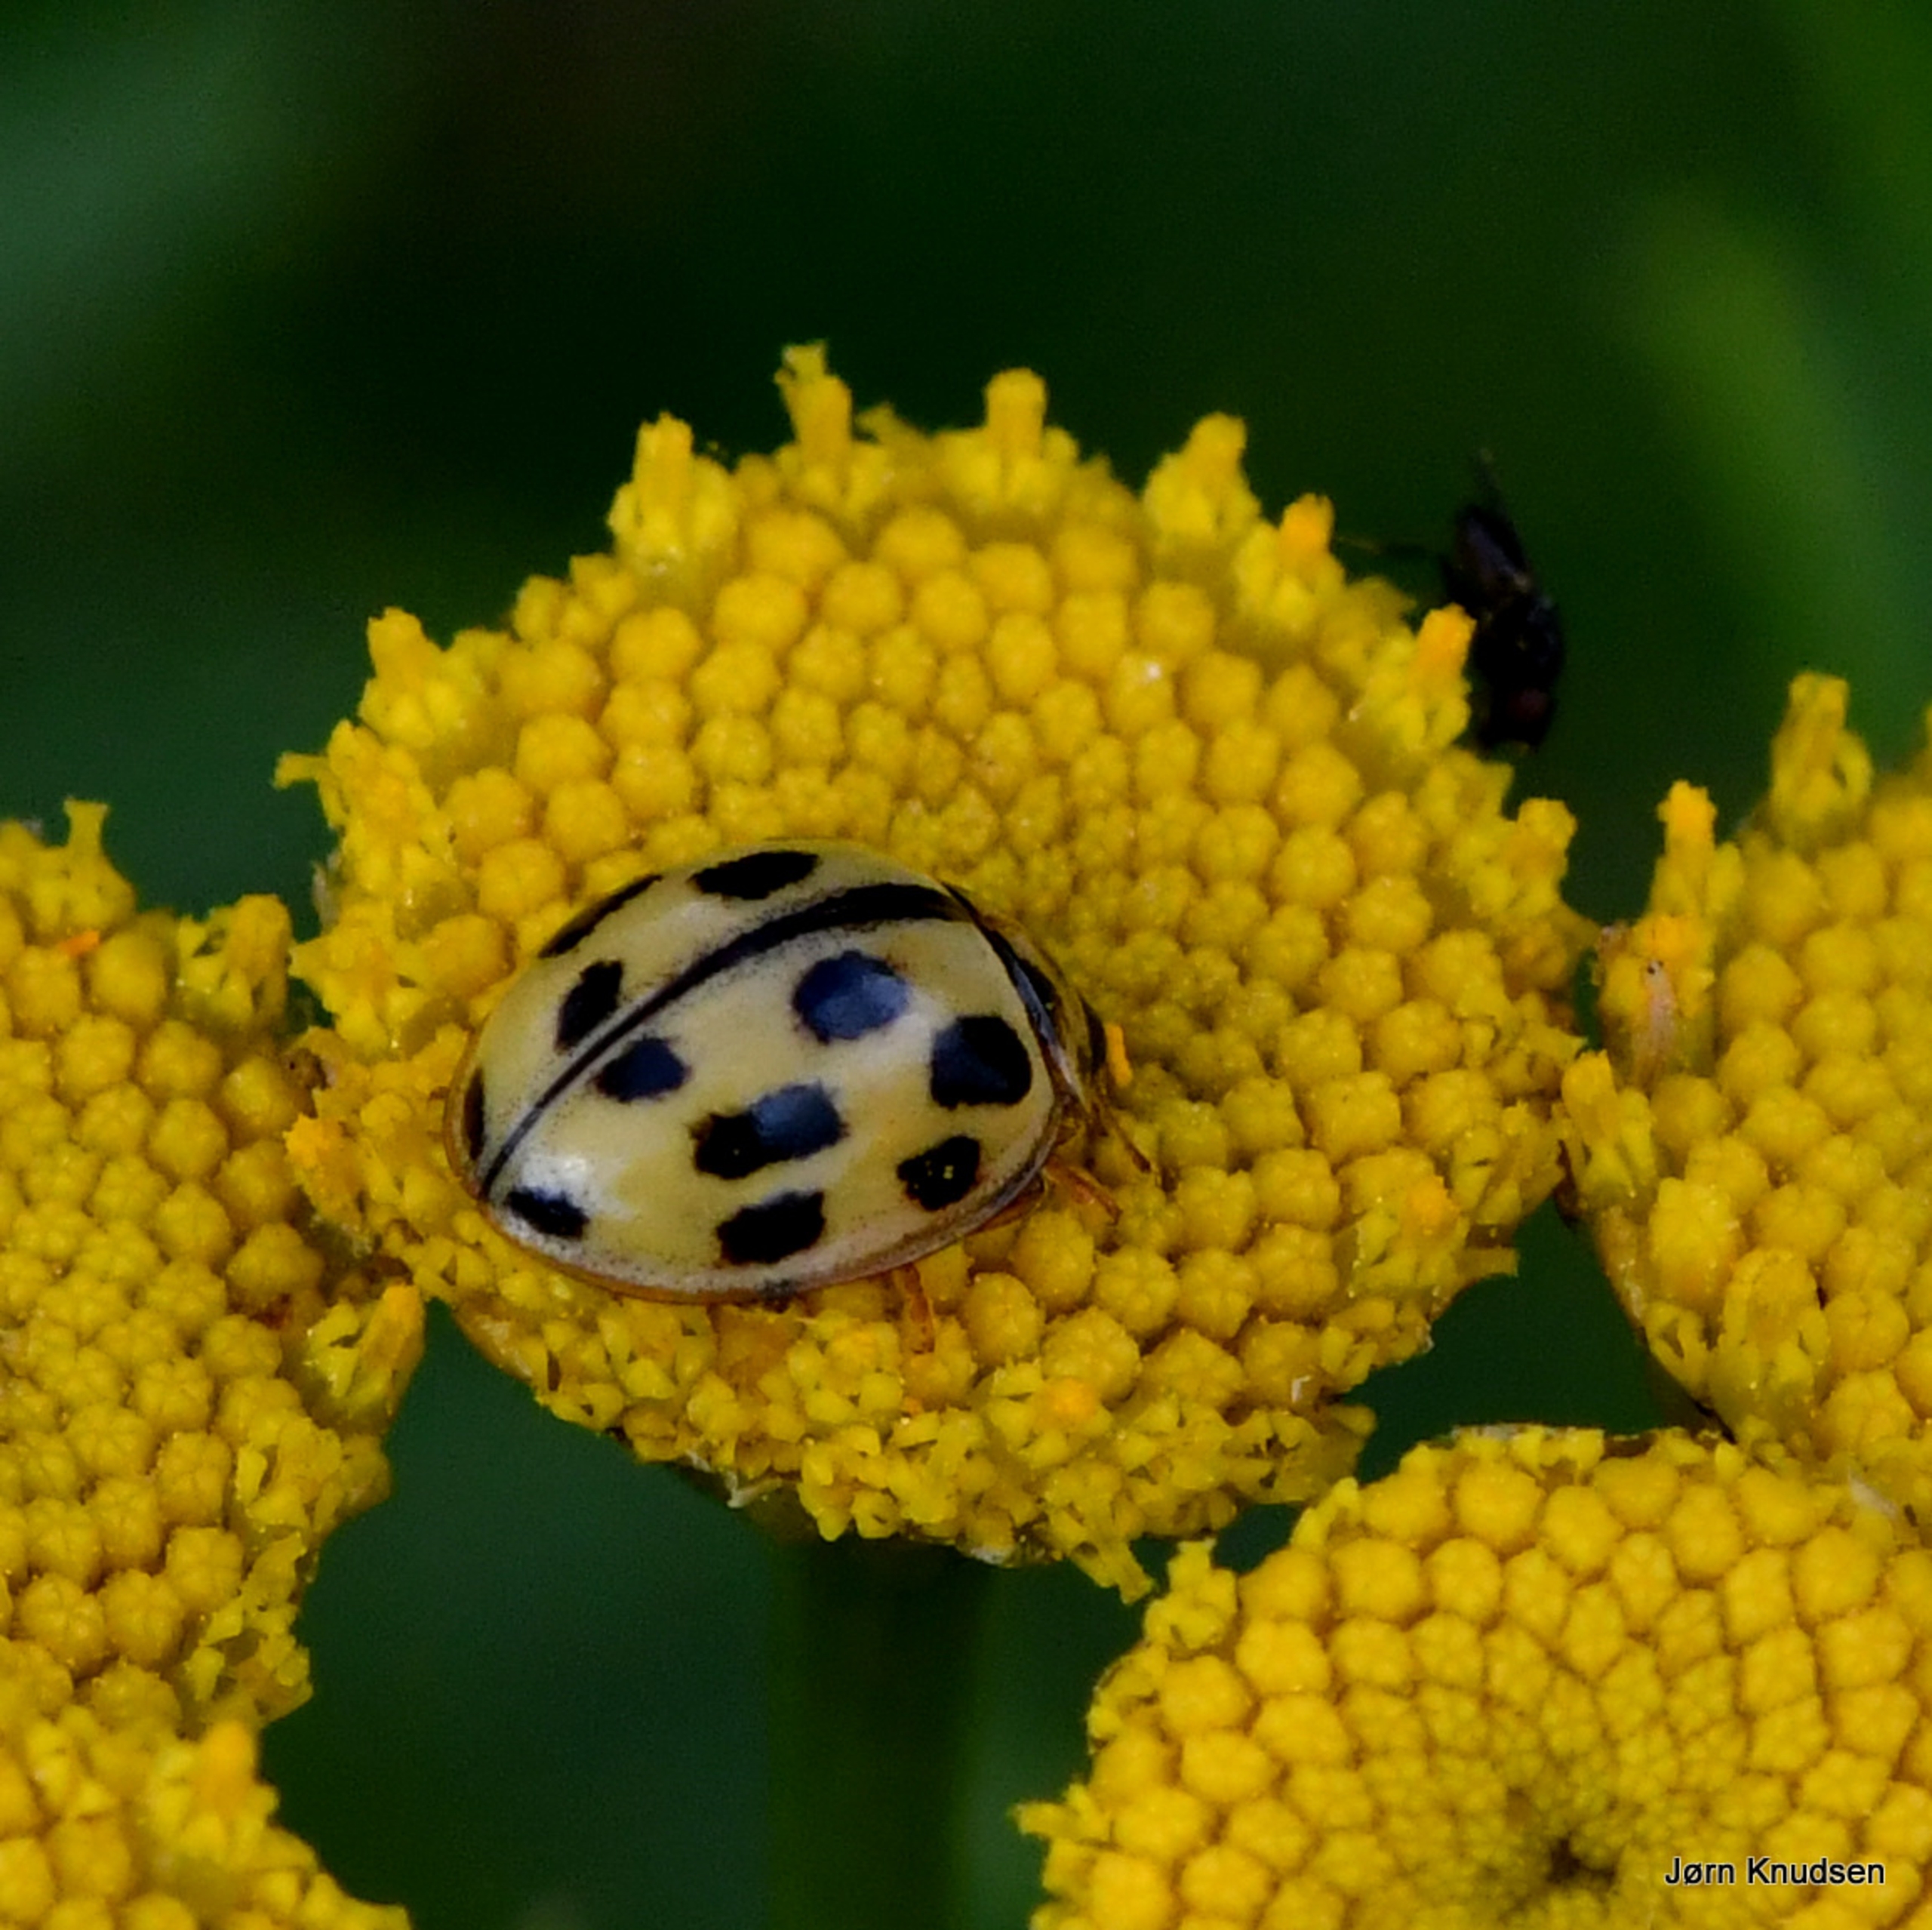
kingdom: Animalia
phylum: Arthropoda
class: Insecta
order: Coleoptera
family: Coccinellidae
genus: Propylaea
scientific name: Propylaea quatuordecimpunctata
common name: Skakbræt
